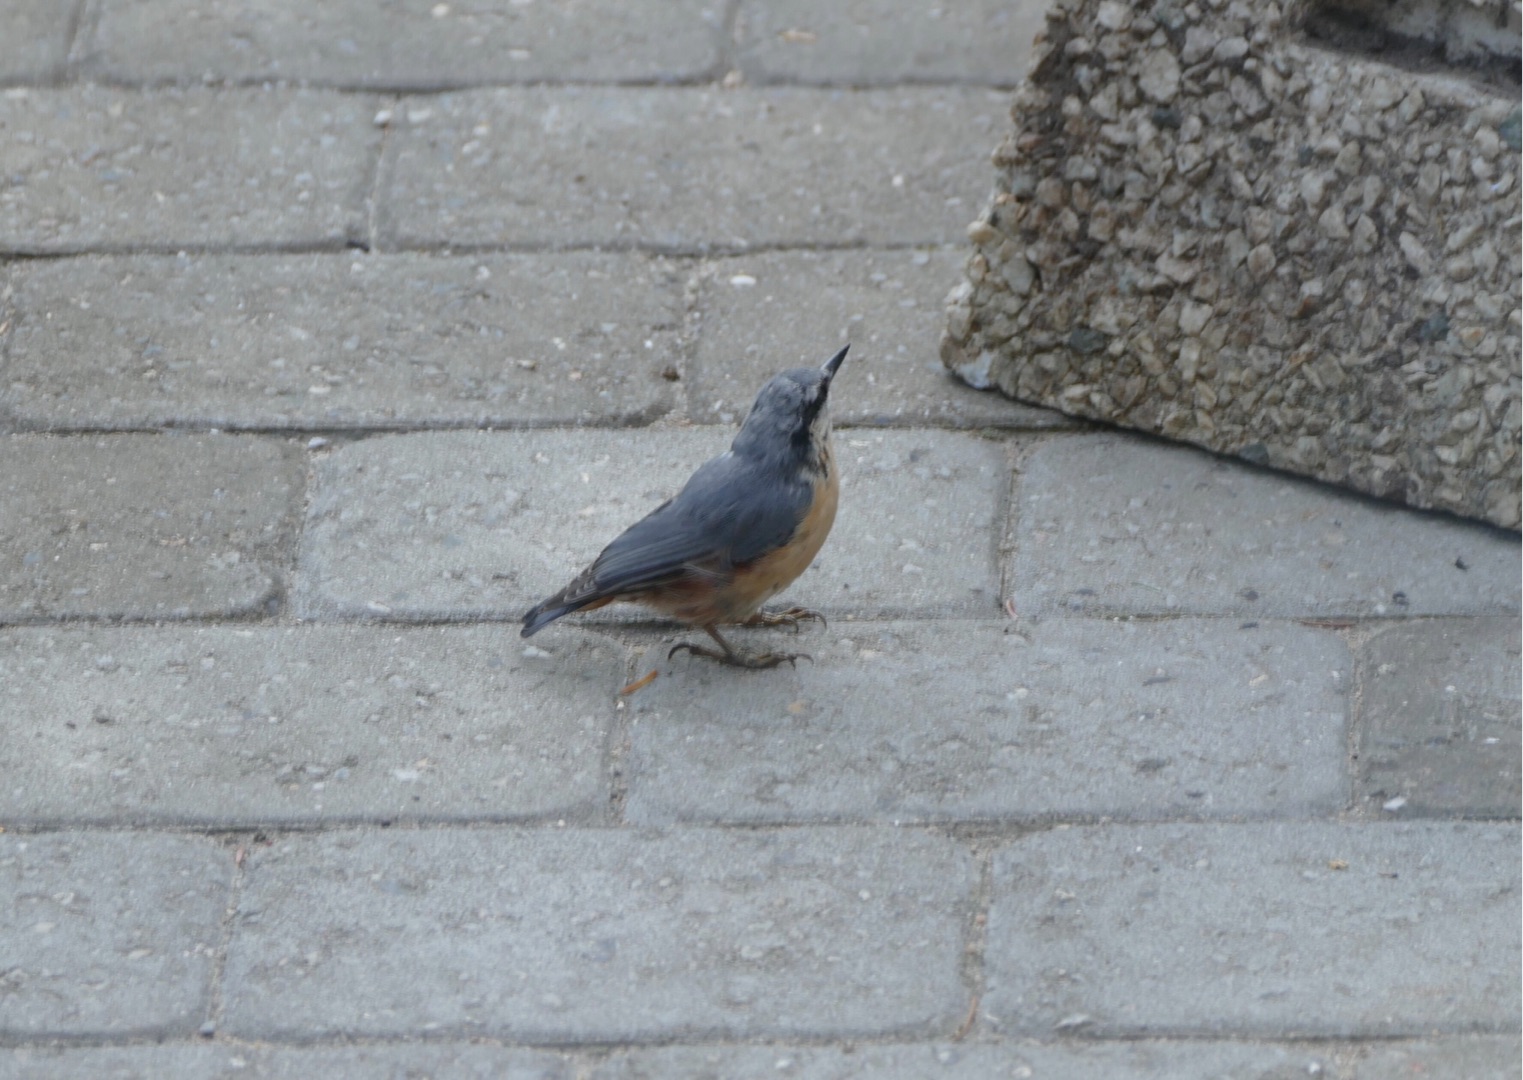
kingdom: Animalia
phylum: Chordata
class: Aves
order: Passeriformes
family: Sittidae
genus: Sitta
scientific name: Sitta europaea
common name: Spætmejse
